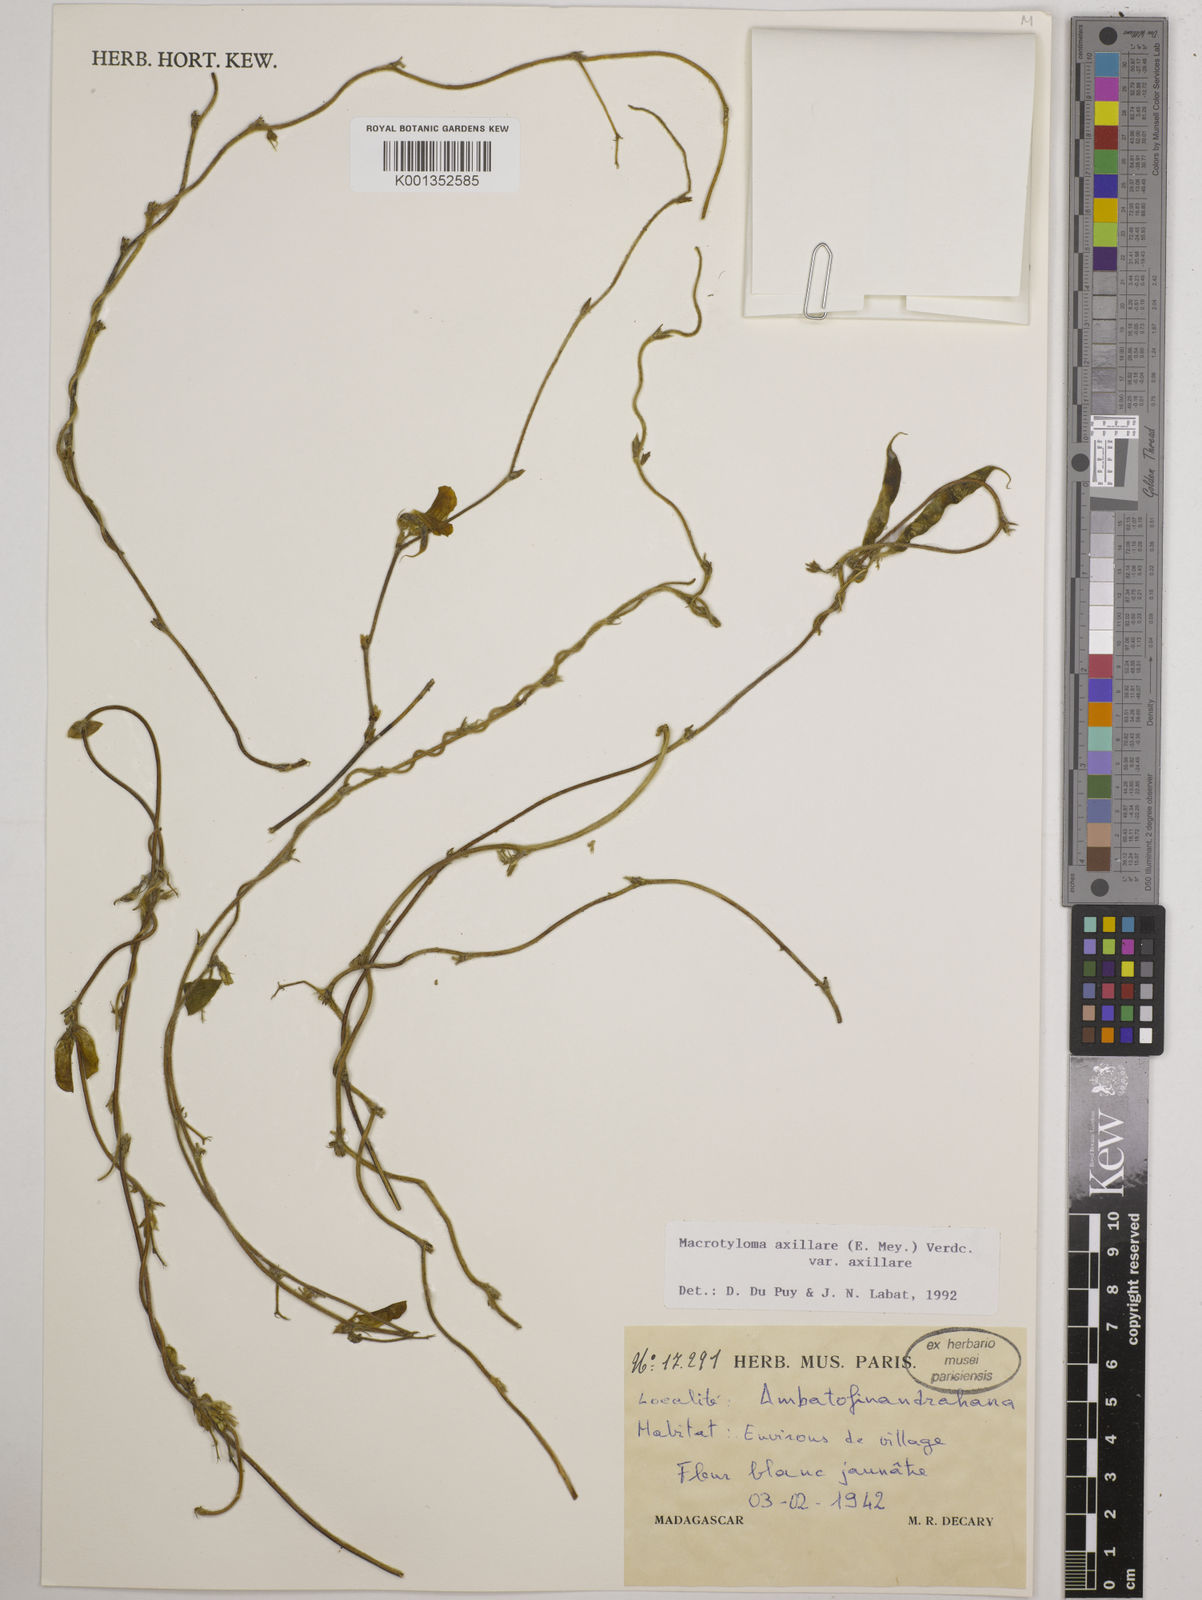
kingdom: Plantae
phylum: Tracheophyta
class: Magnoliopsida
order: Fabales
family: Fabaceae
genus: Macrotyloma
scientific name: Macrotyloma axillare
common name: Perennial horsegram
